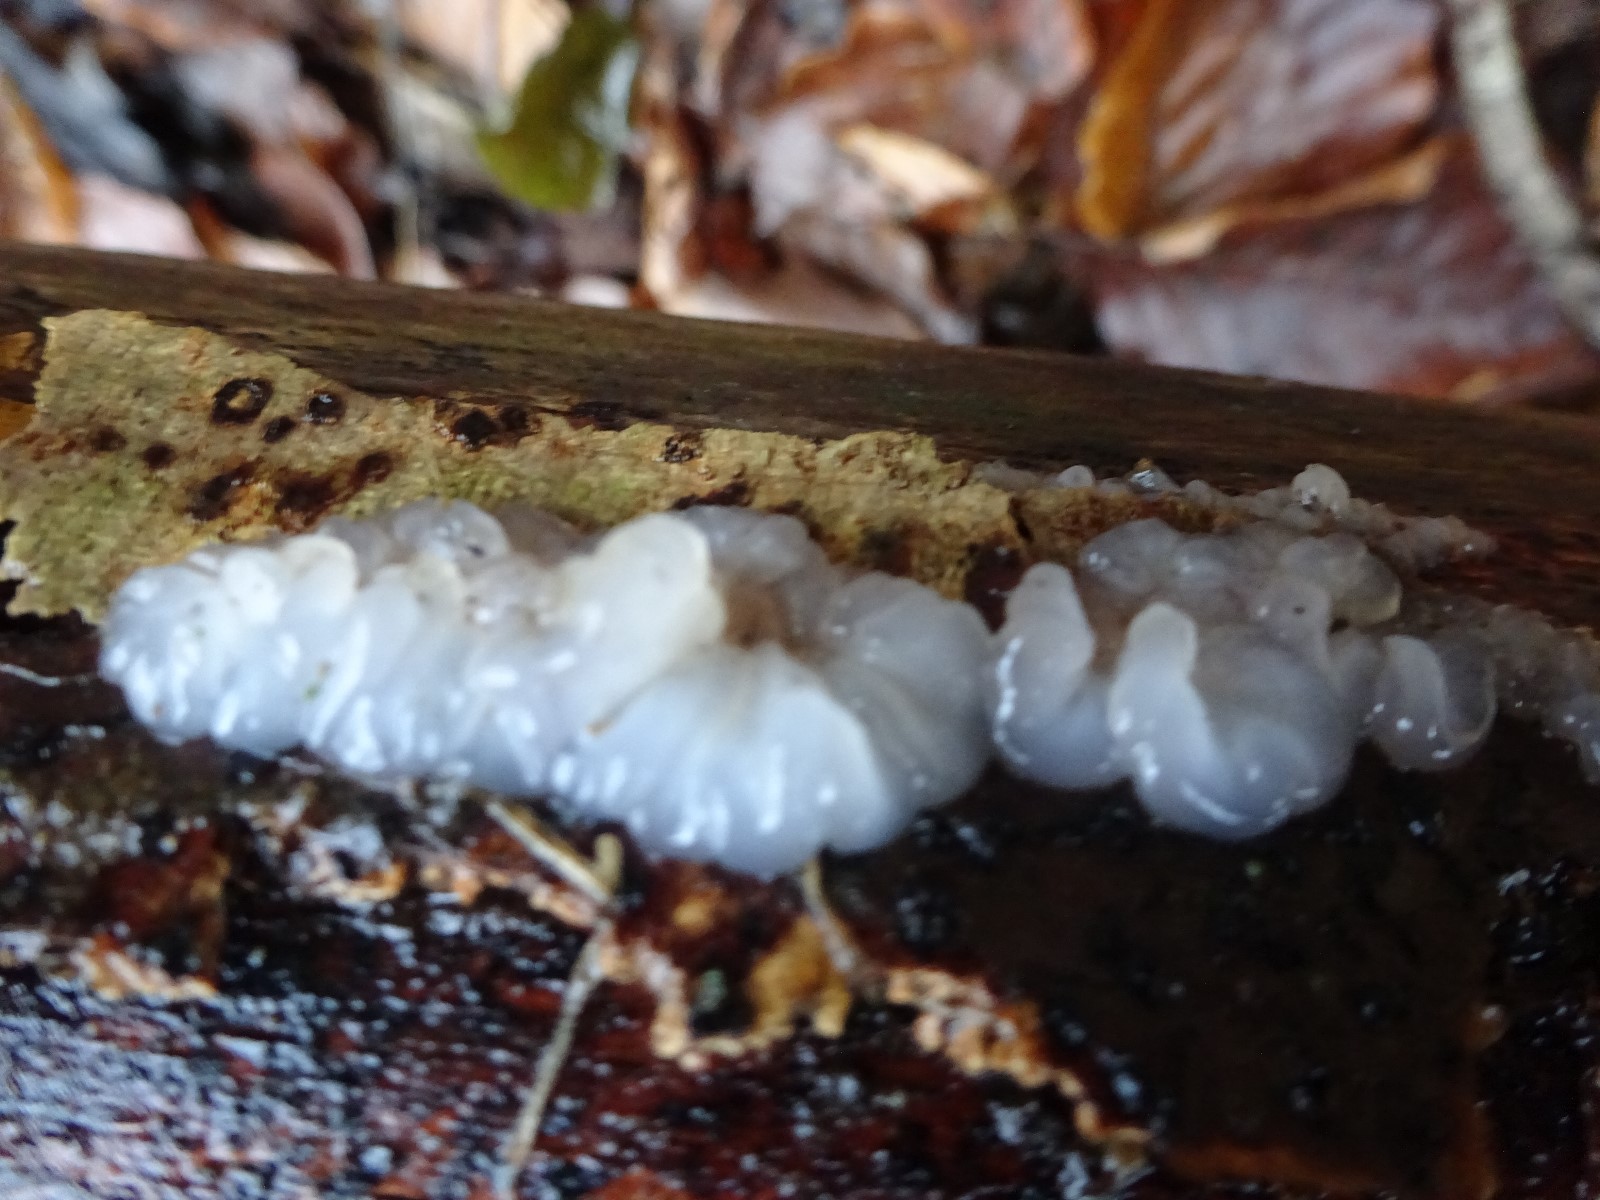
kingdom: Fungi
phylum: Basidiomycota
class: Agaricomycetes
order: Auriculariales
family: Hyaloriaceae
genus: Myxarium
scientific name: Myxarium nucleatum
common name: klar bævretop
